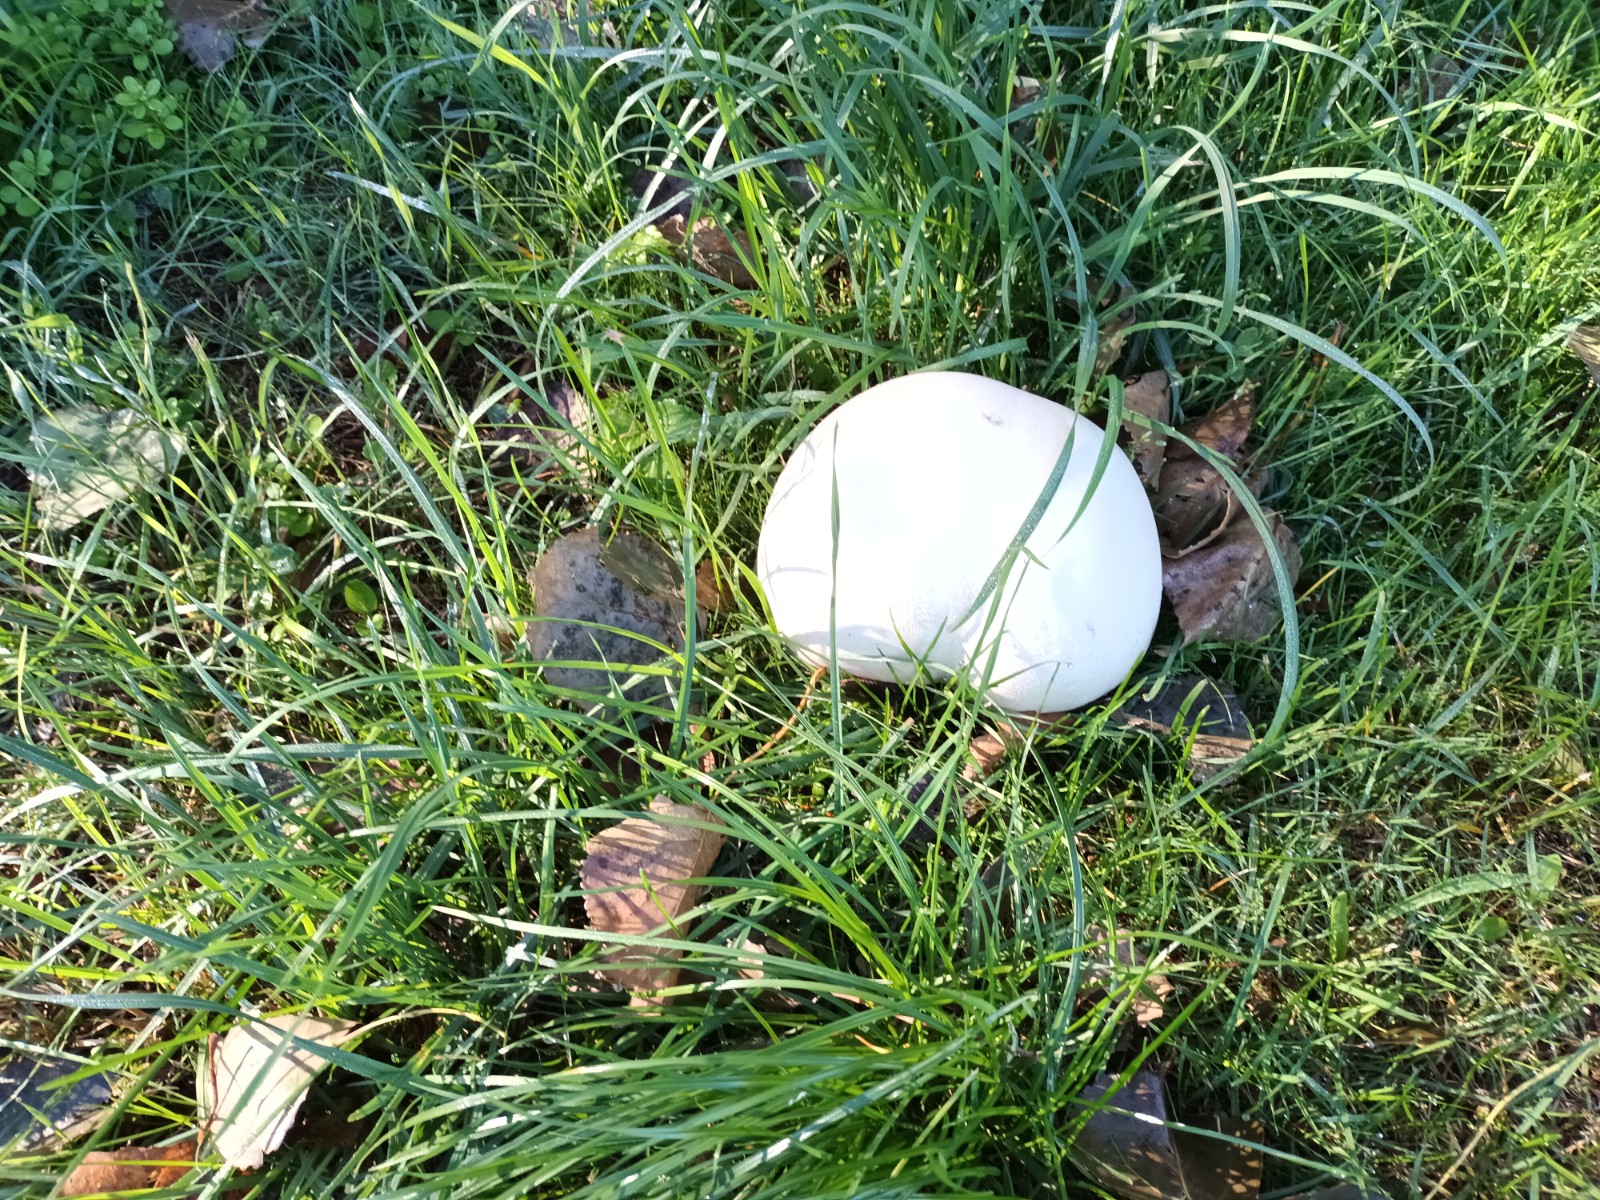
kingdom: Fungi
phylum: Basidiomycota
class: Agaricomycetes
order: Agaricales
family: Lycoperdaceae
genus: Calvatia
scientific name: Calvatia gigantea
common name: kæmpestøvbold
